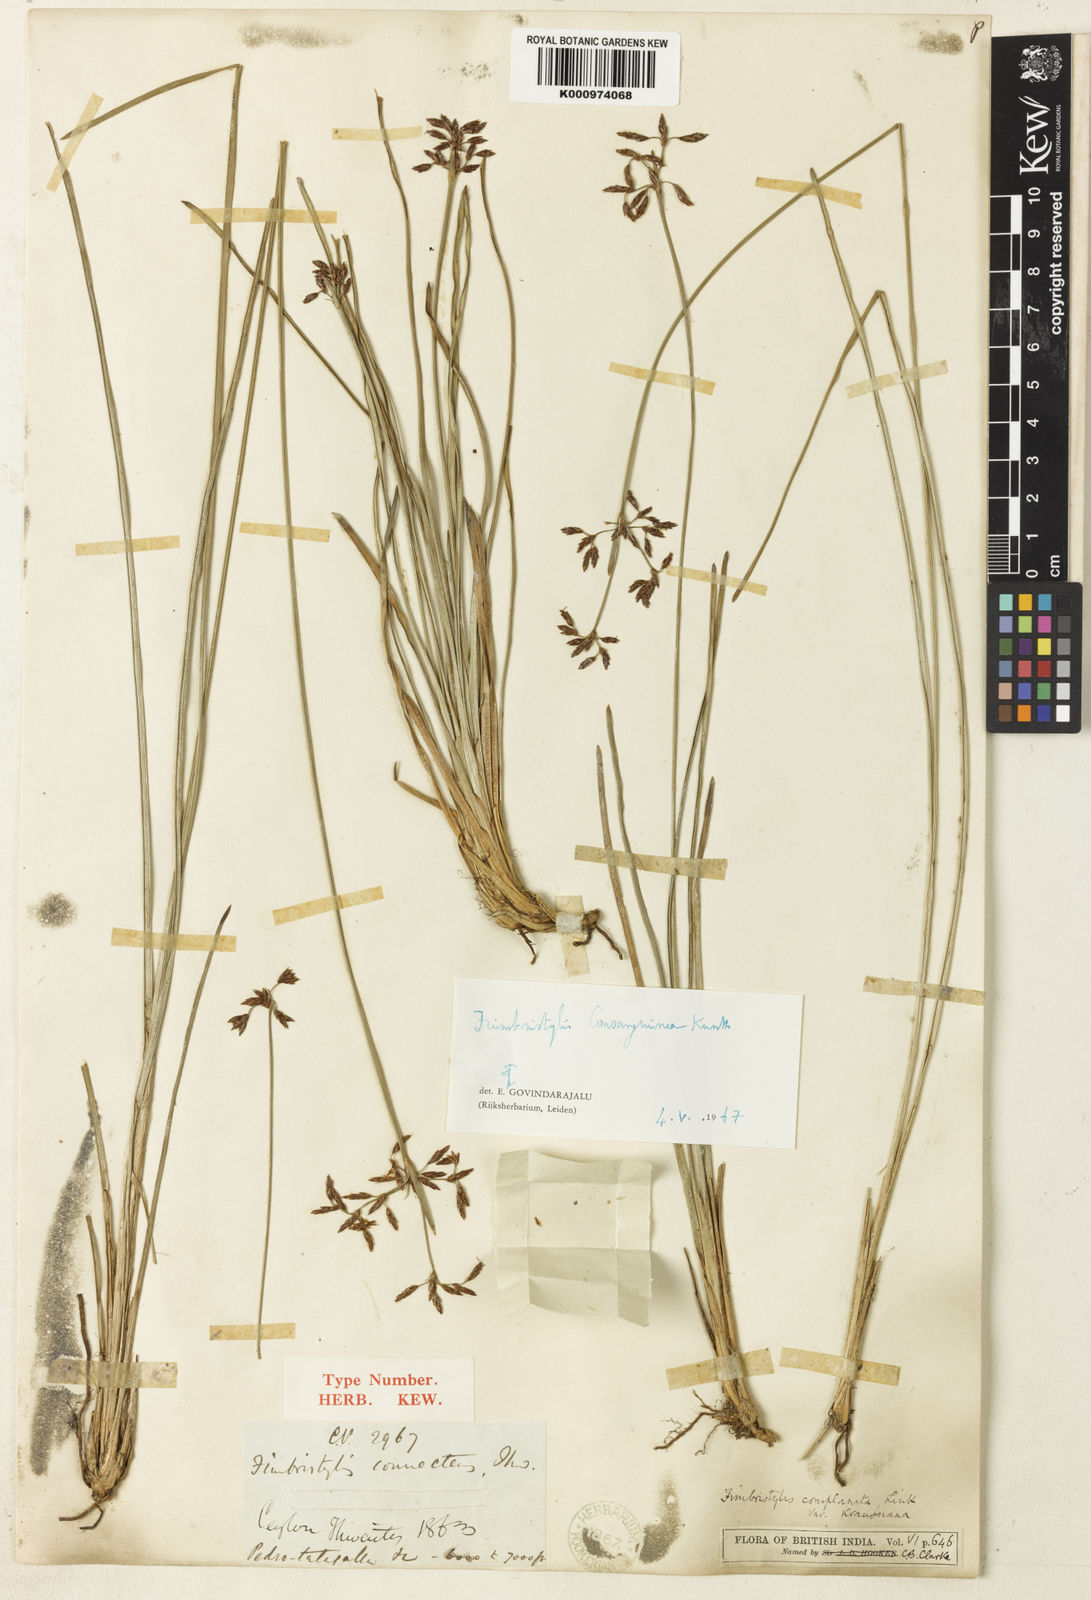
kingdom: Plantae
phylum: Tracheophyta
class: Liliopsida
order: Poales
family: Cyperaceae
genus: Fimbristylis
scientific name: Fimbristylis consanguinea
